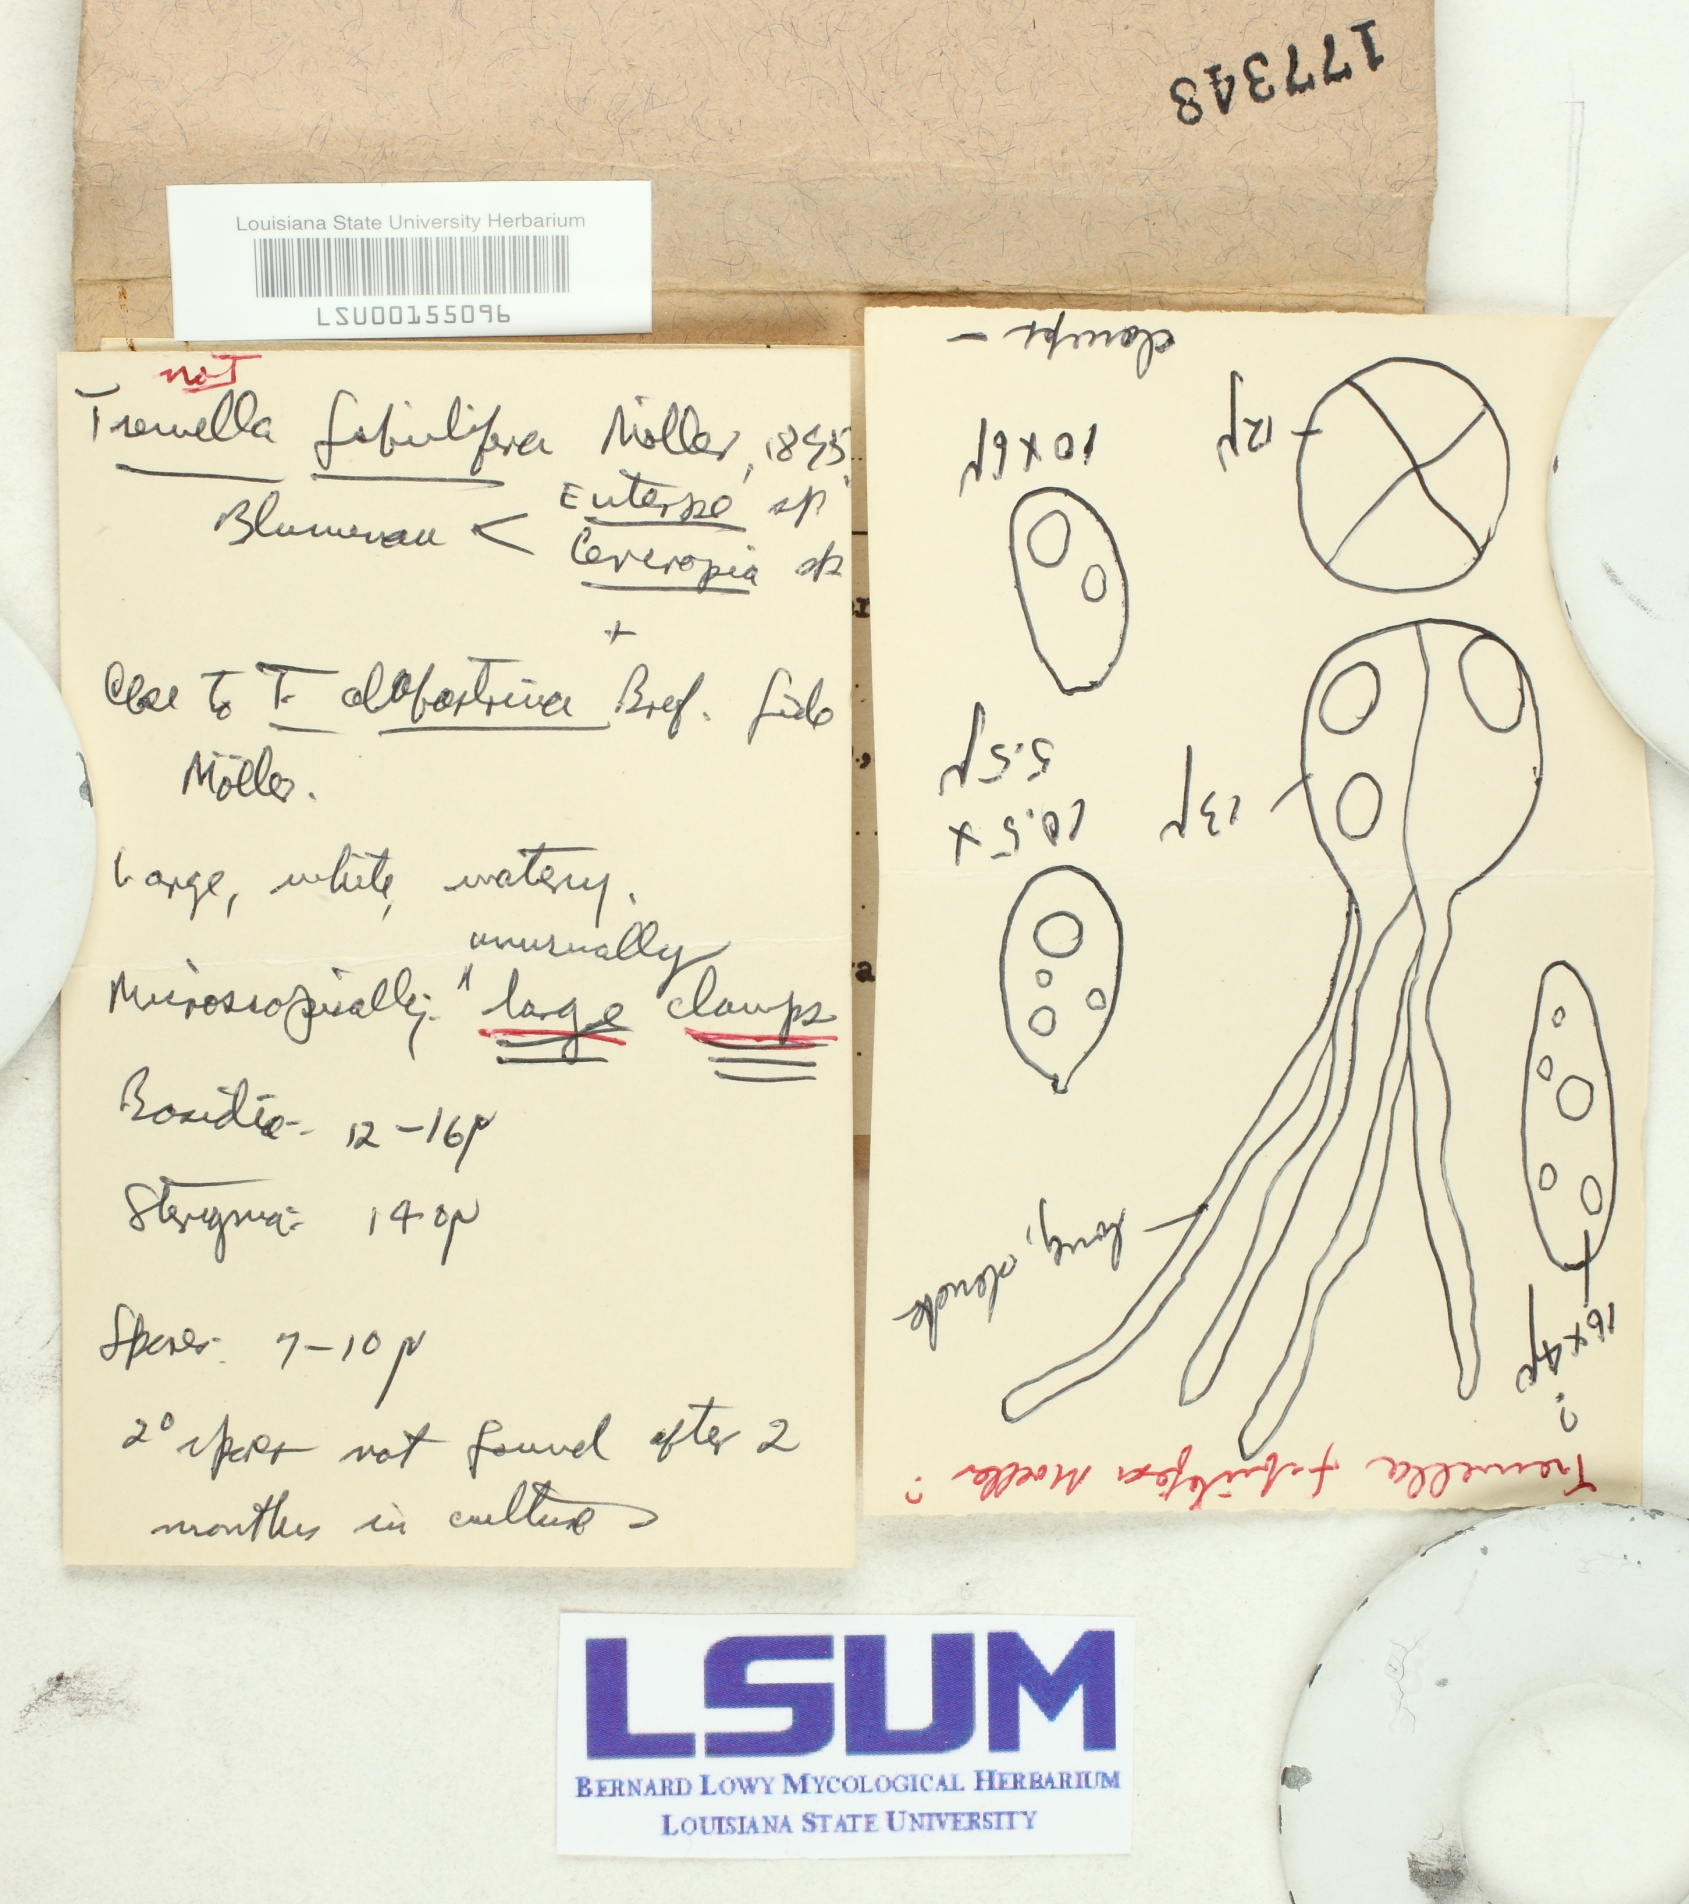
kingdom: Fungi
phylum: Basidiomycota
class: Tremellomycetes
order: Tremellales
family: Tremellaceae
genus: Tremella
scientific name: Tremella fibulifera
